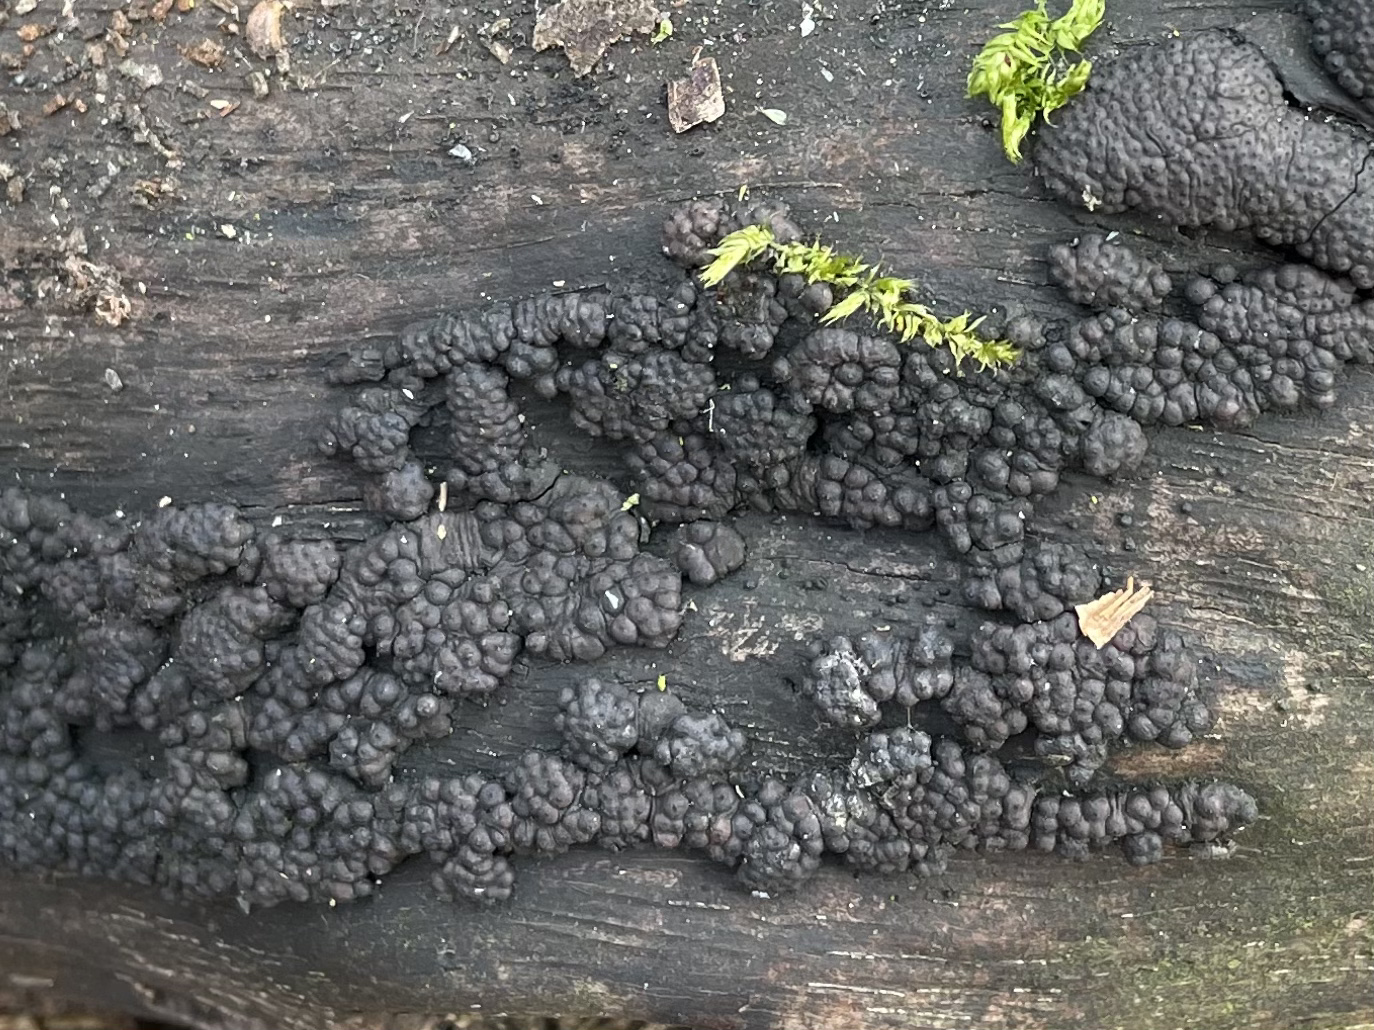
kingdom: Fungi
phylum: Ascomycota
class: Sordariomycetes
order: Xylariales
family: Hypoxylaceae
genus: Jackrogersella
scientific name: Jackrogersella
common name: kulbær
